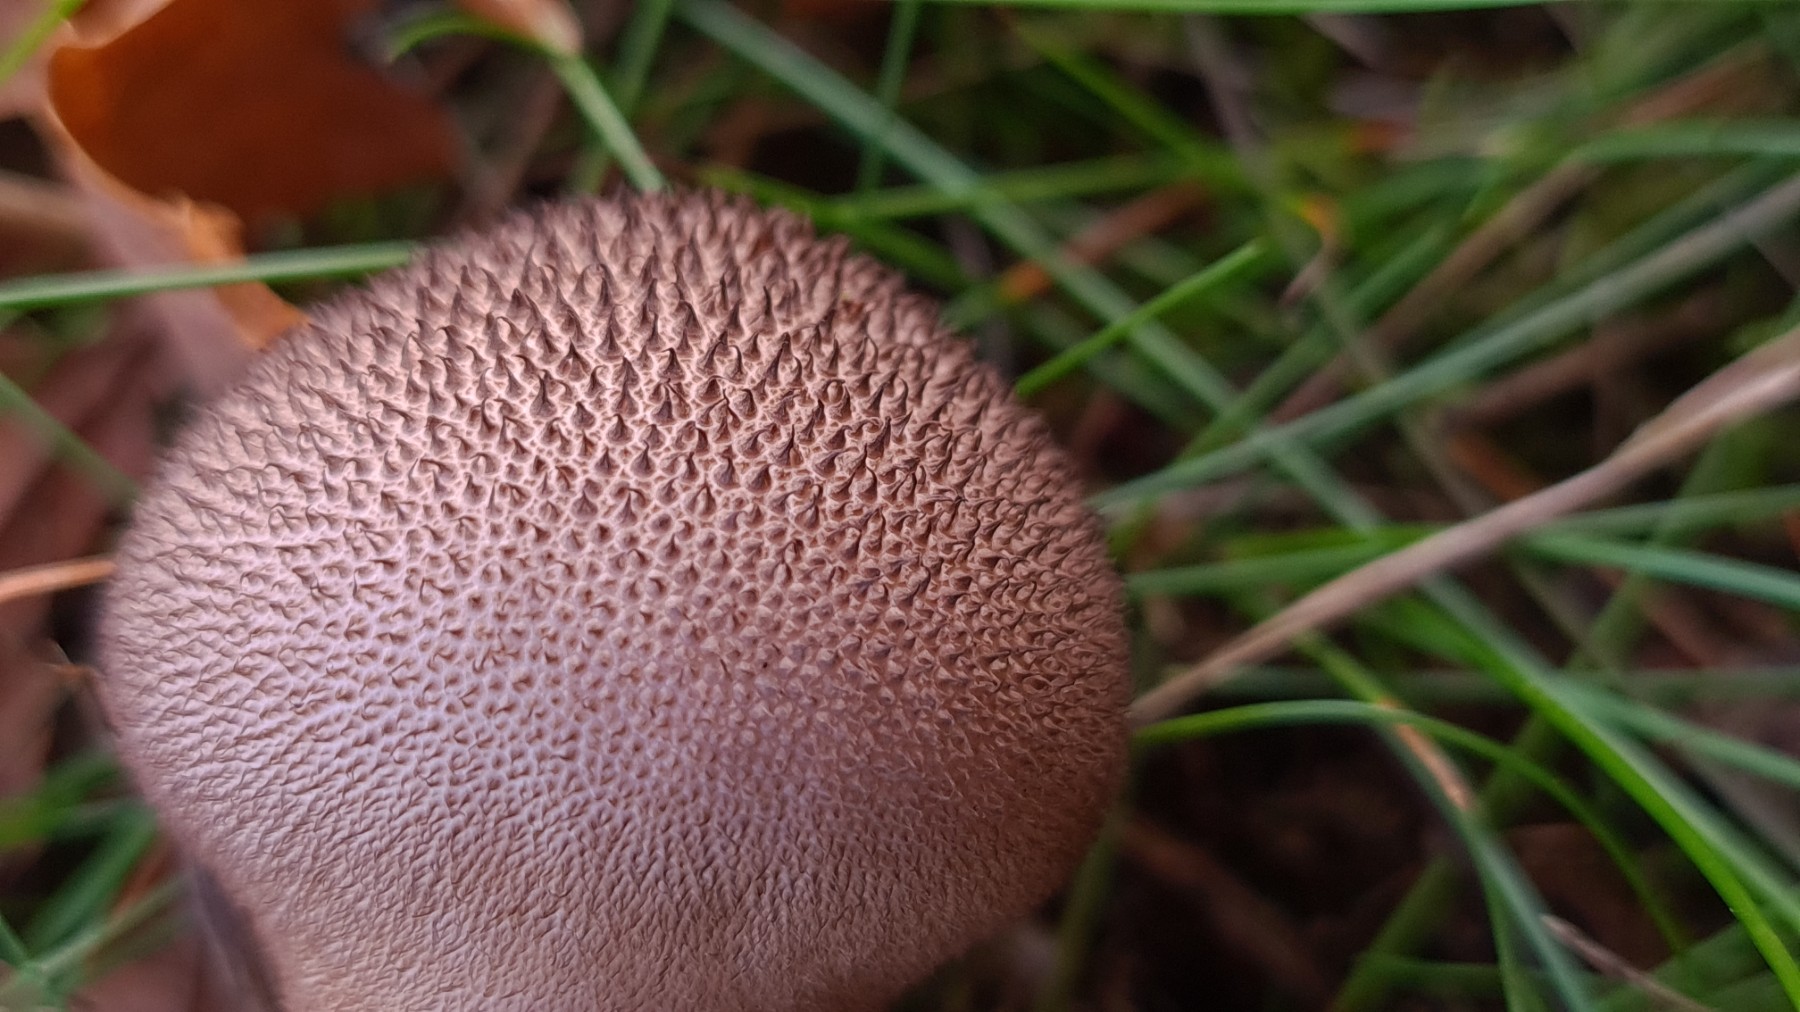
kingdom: Fungi
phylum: Basidiomycota
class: Agaricomycetes
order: Agaricales
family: Lycoperdaceae
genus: Lycoperdon
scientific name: Lycoperdon nigrescens
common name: sortagtig støvbold
